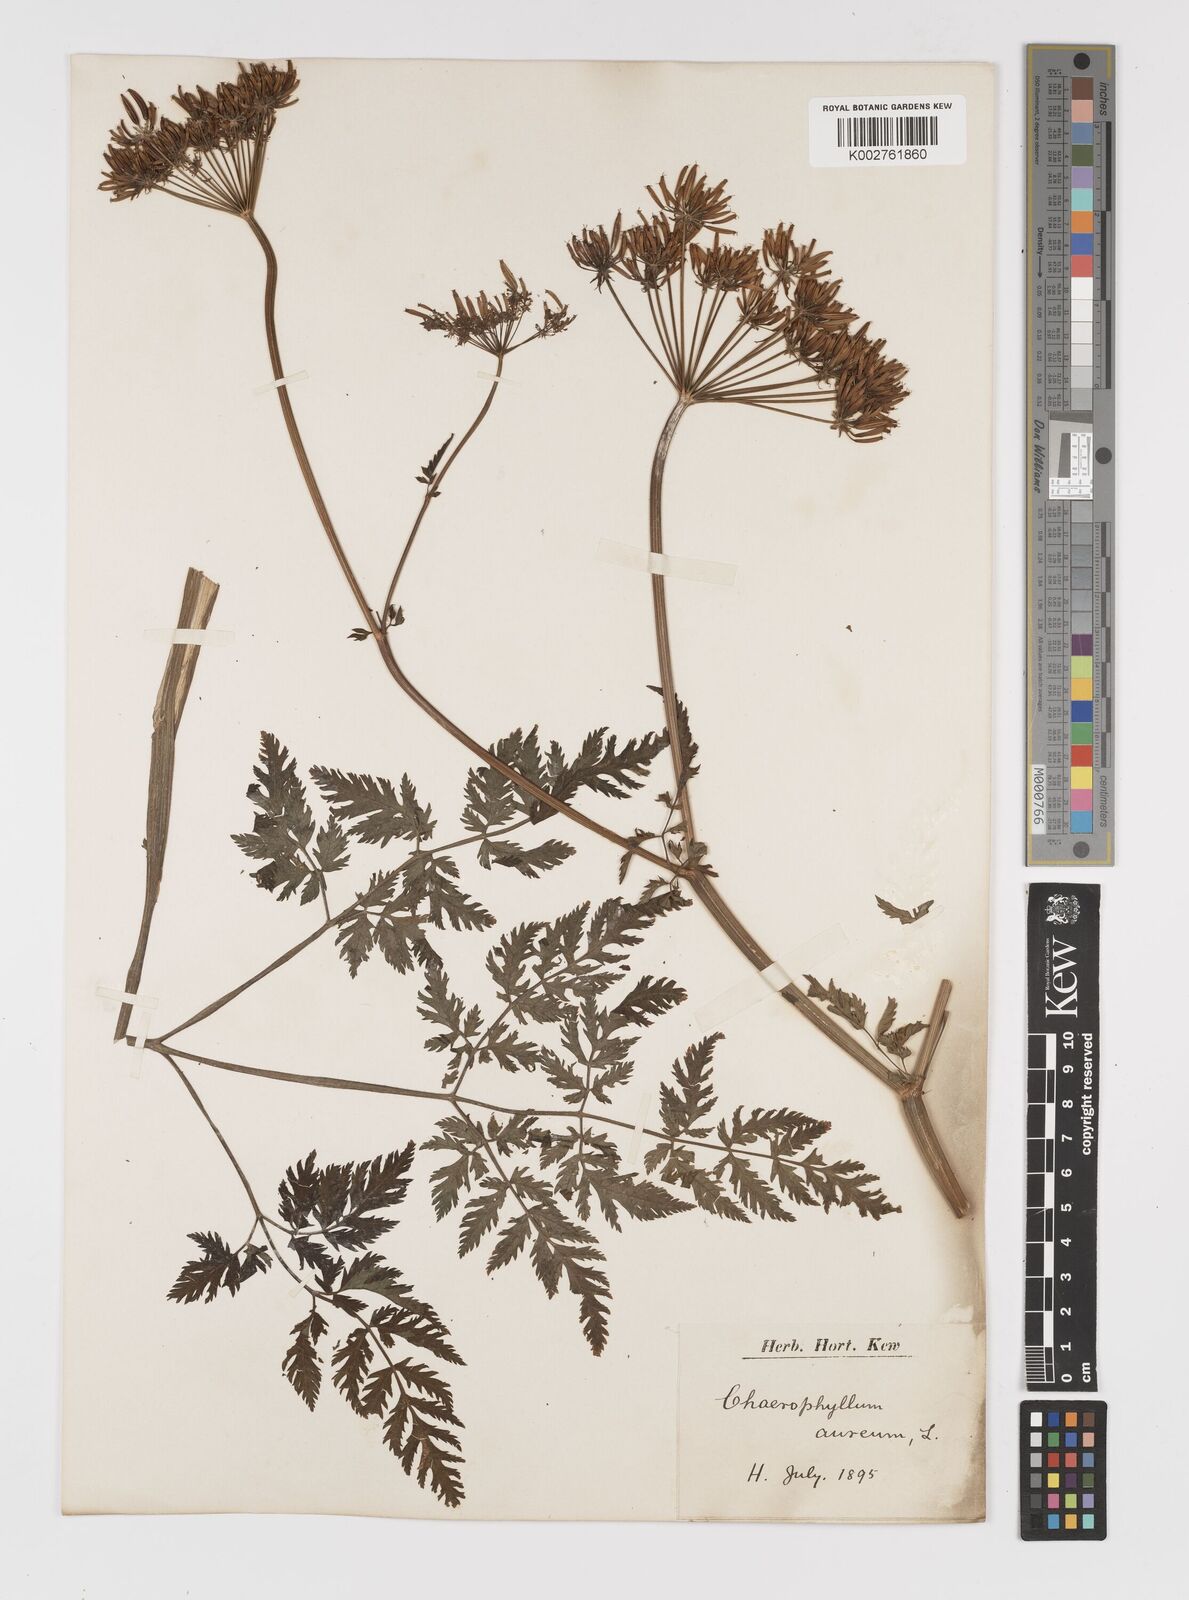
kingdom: Plantae
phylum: Tracheophyta
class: Magnoliopsida
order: Apiales
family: Apiaceae
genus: Chaerophyllum
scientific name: Chaerophyllum aureum
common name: Golden chervil
